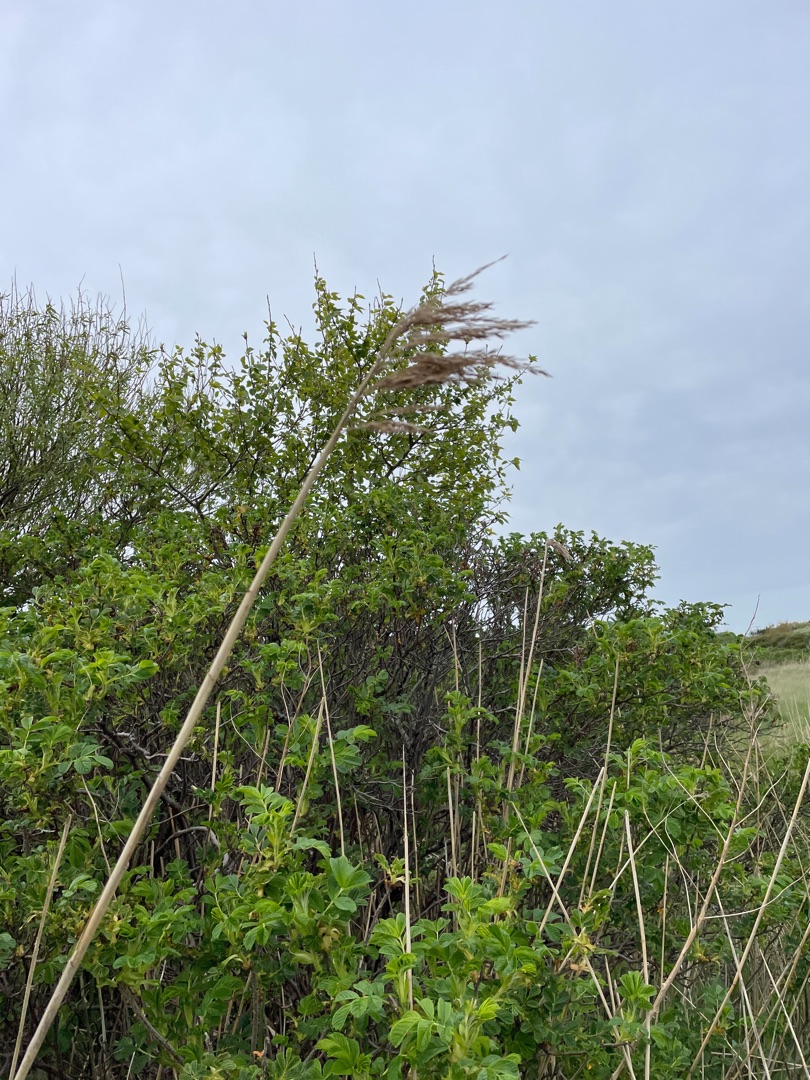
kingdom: Plantae
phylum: Tracheophyta
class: Liliopsida
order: Poales
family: Poaceae
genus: Phragmites
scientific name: Phragmites australis
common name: Tagrør
